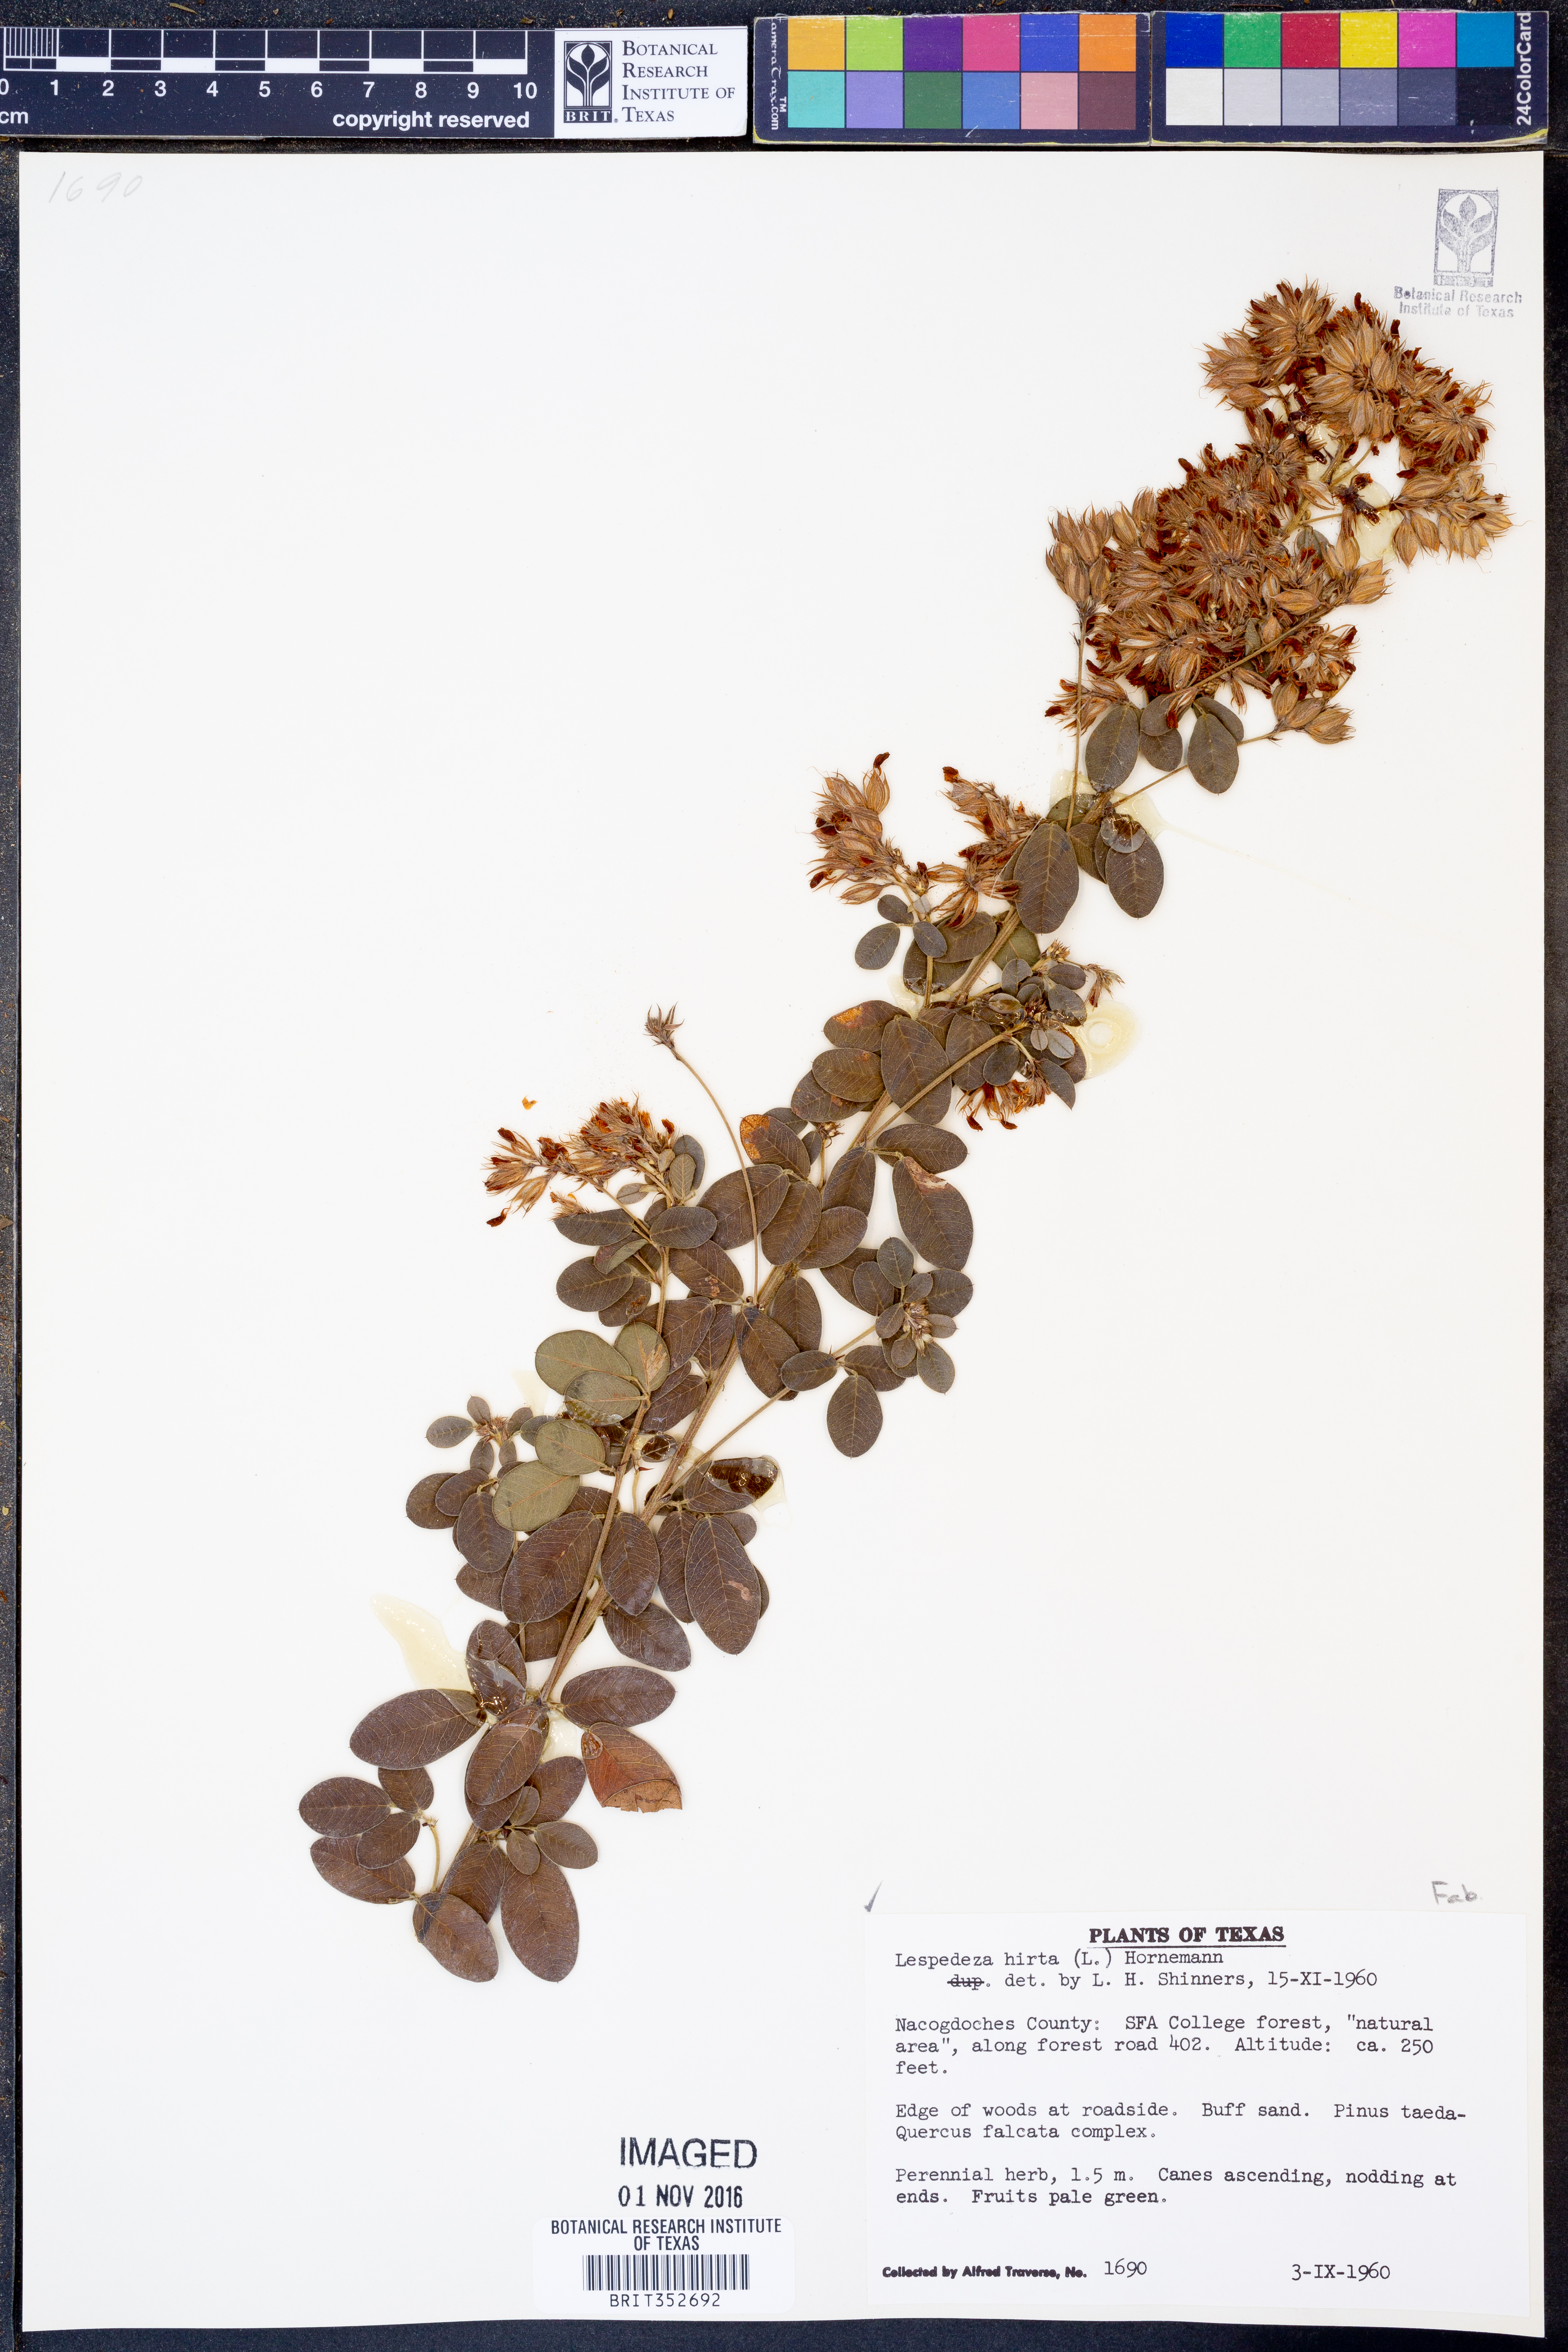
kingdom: Plantae
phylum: Tracheophyta
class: Magnoliopsida
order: Fabales
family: Fabaceae
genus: Lespedeza
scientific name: Lespedeza hirta
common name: Hairy lespedeza
